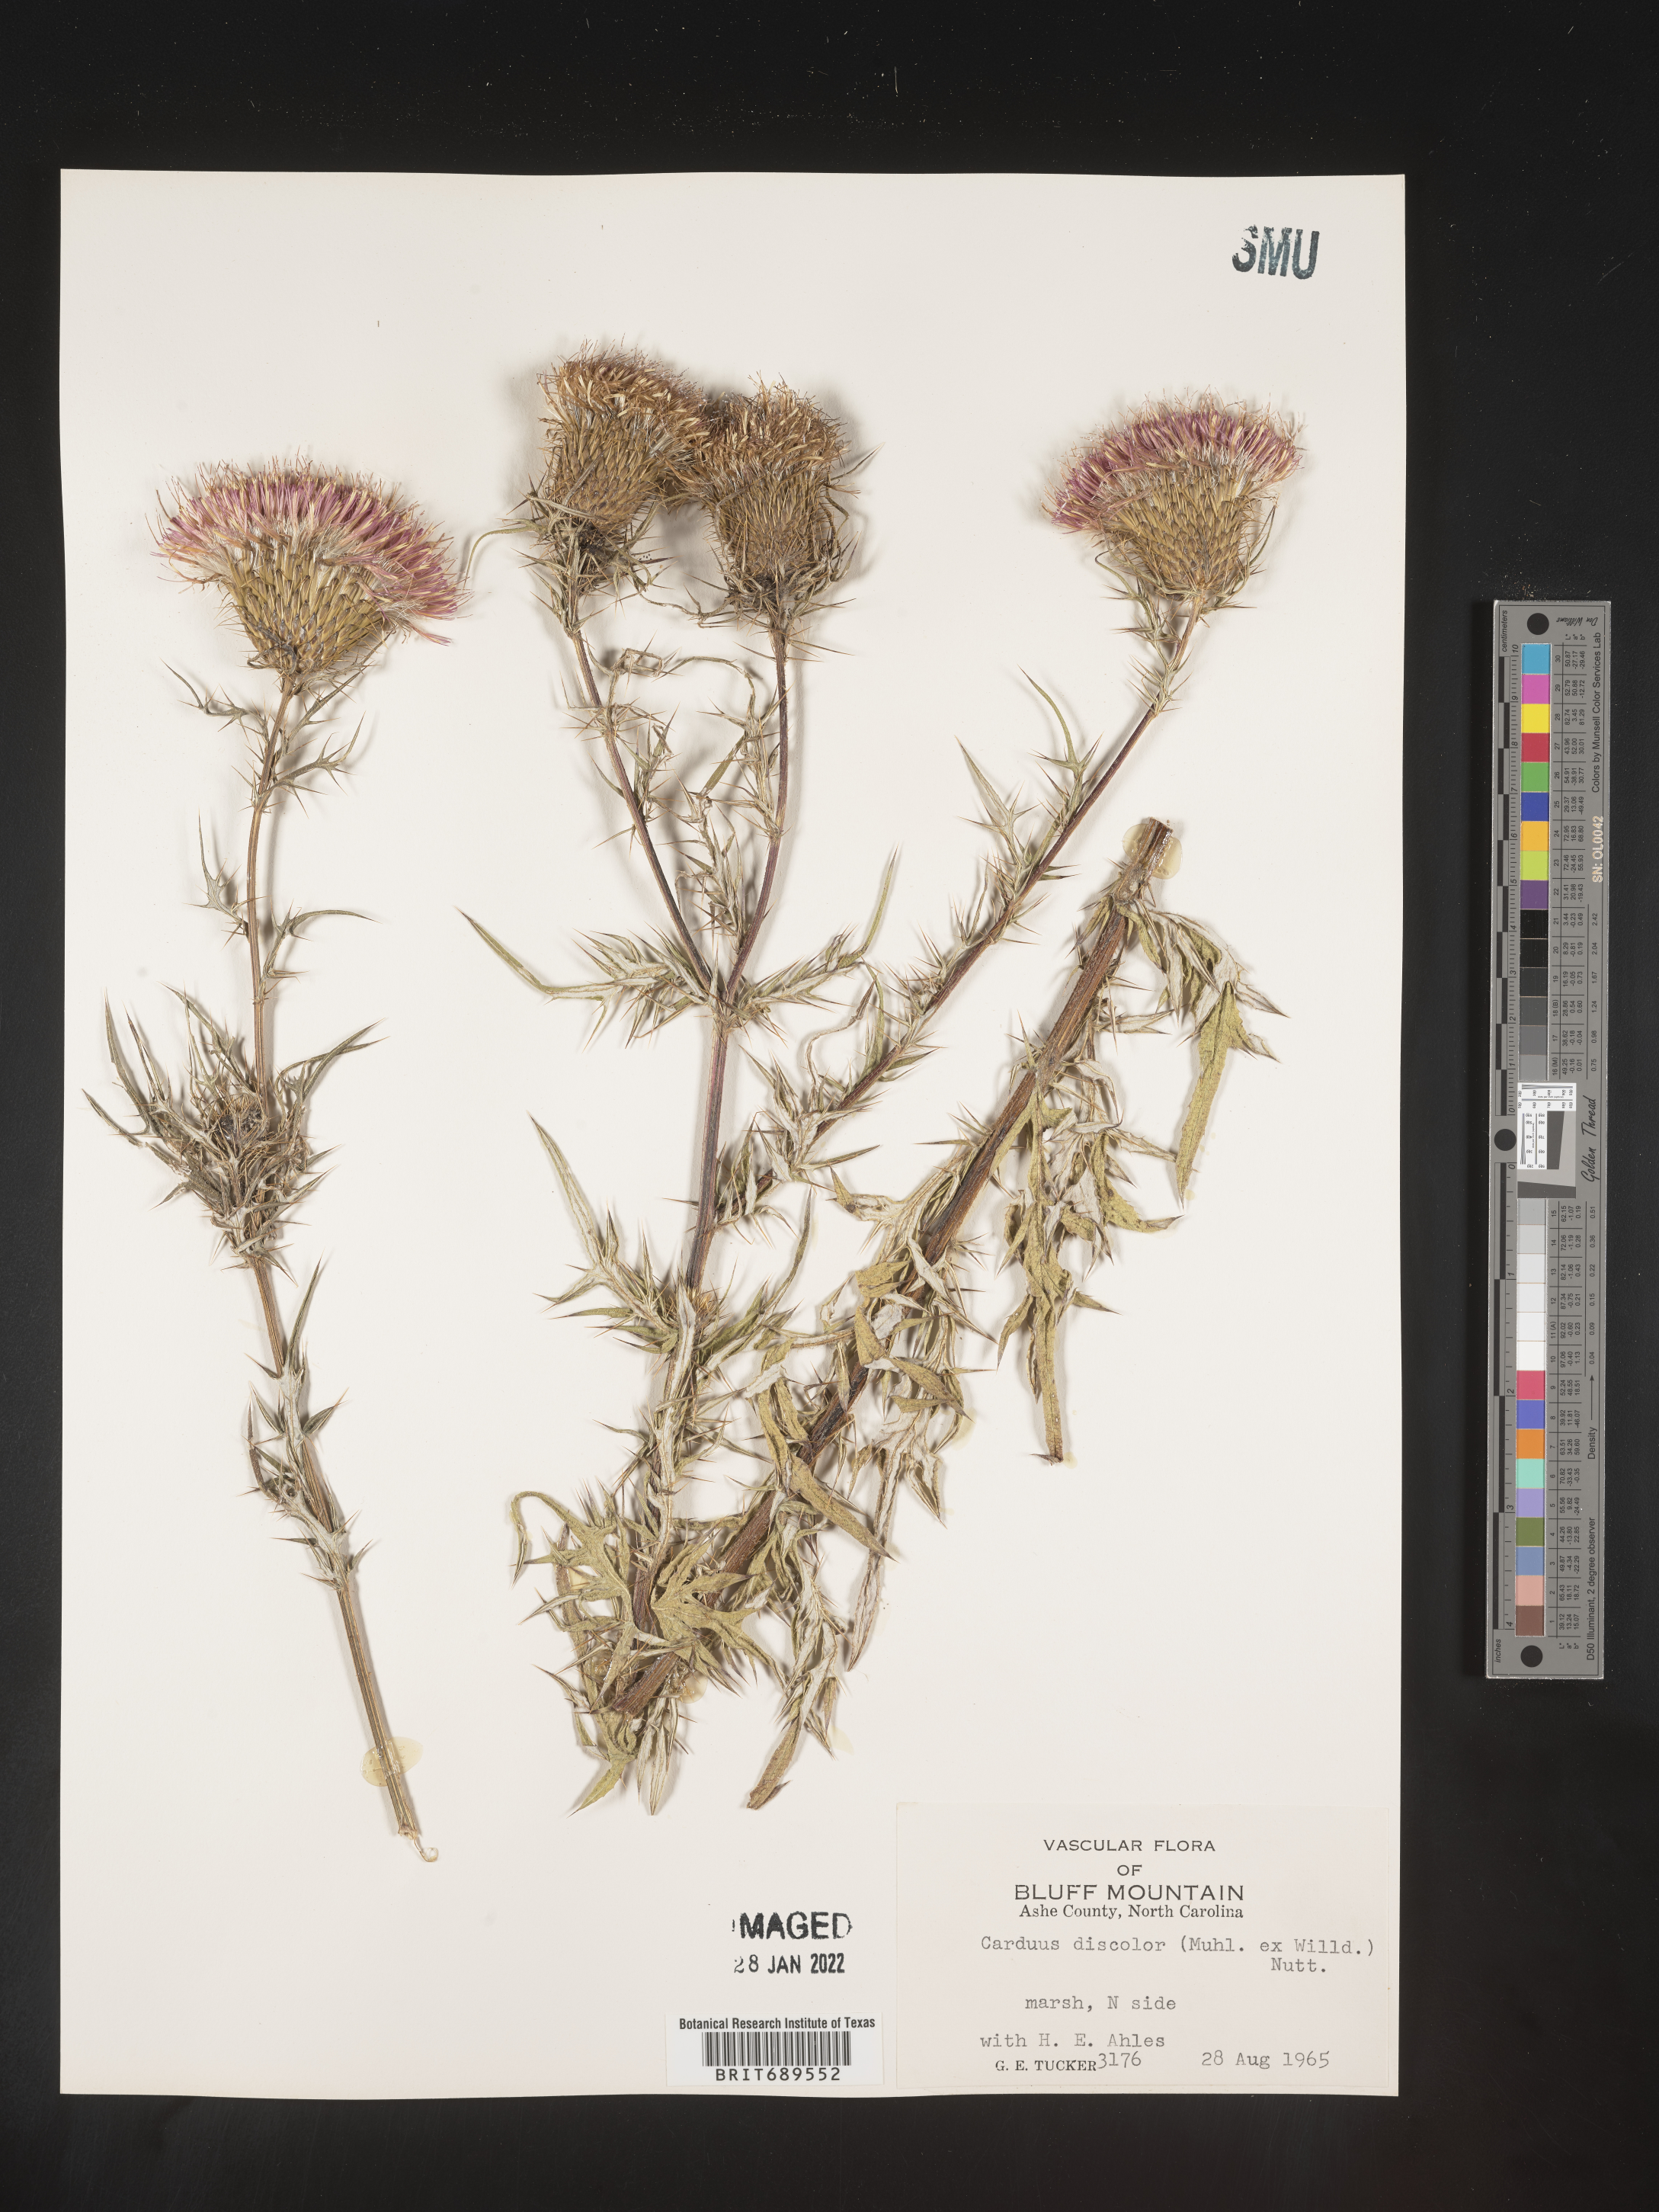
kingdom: Plantae
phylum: Tracheophyta
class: Magnoliopsida
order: Asterales
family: Asteraceae
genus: Cirsium
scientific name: Cirsium discolor
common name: Field thistle
